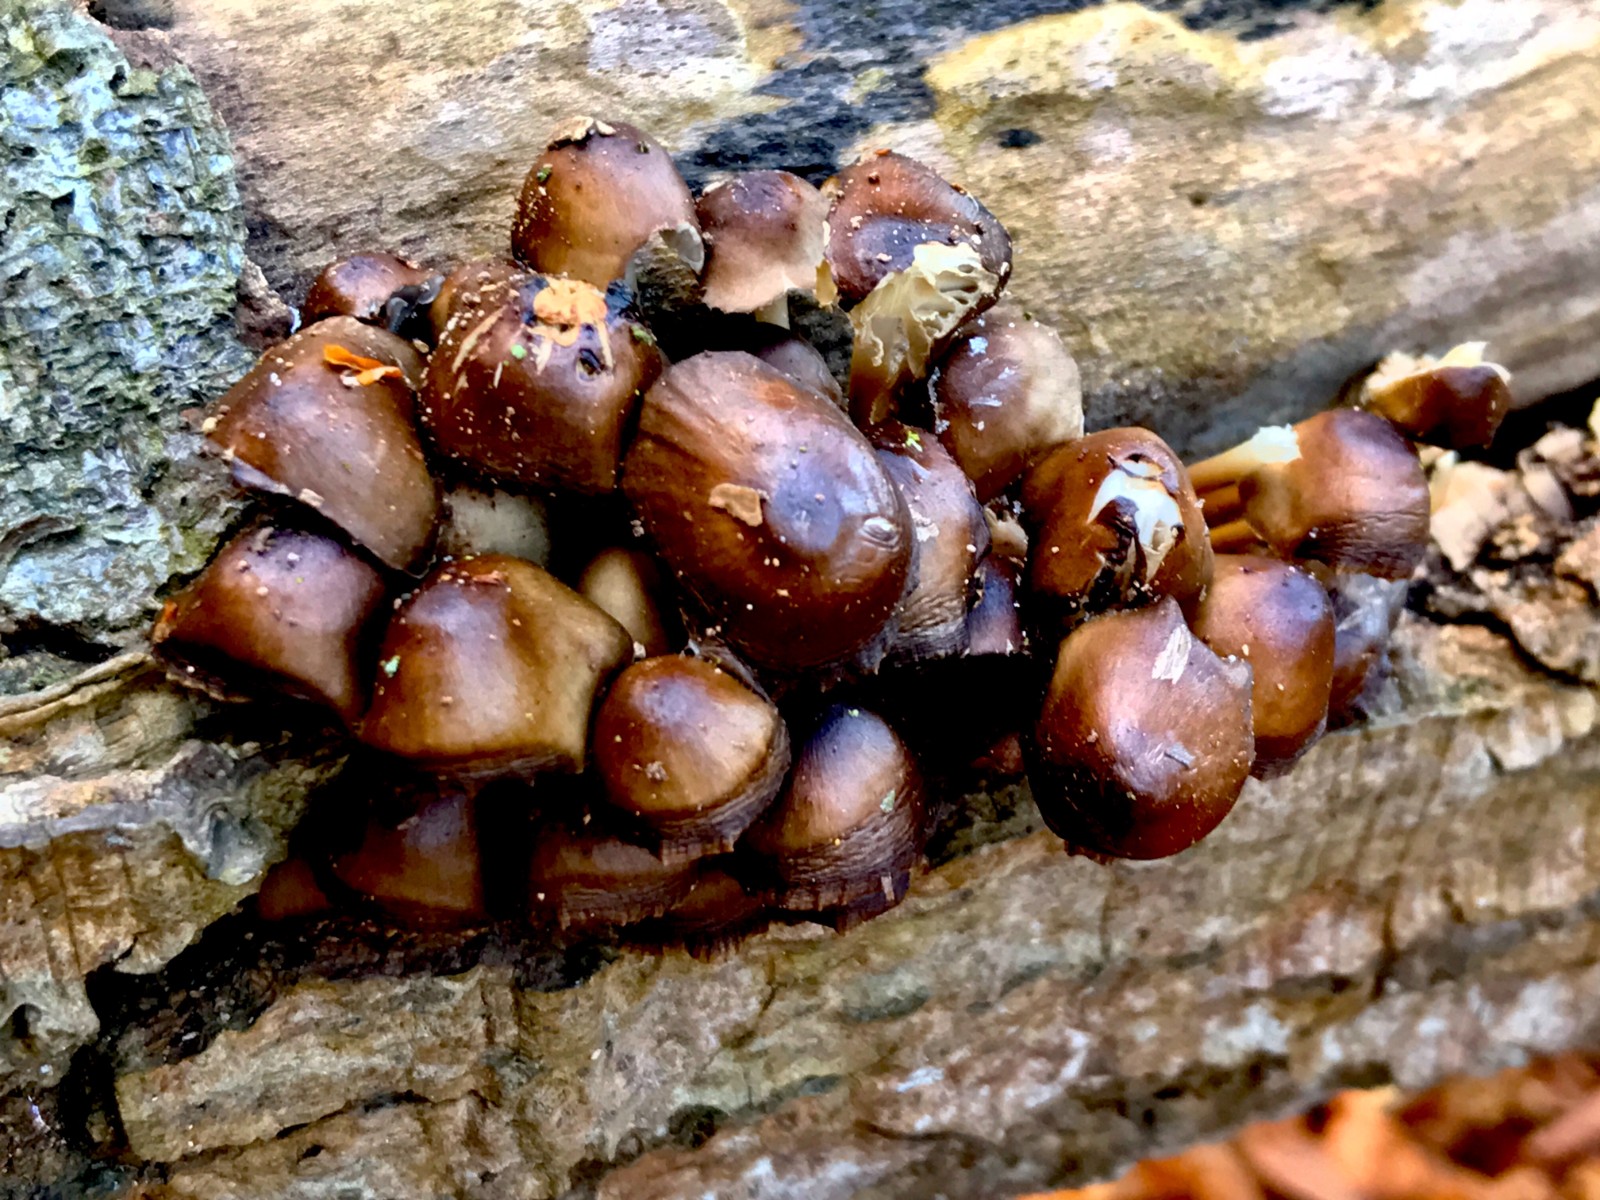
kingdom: Fungi
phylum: Basidiomycota
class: Agaricomycetes
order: Agaricales
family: Mycenaceae
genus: Mycena
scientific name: Mycena tintinnabulum
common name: vinter-huesvamp
